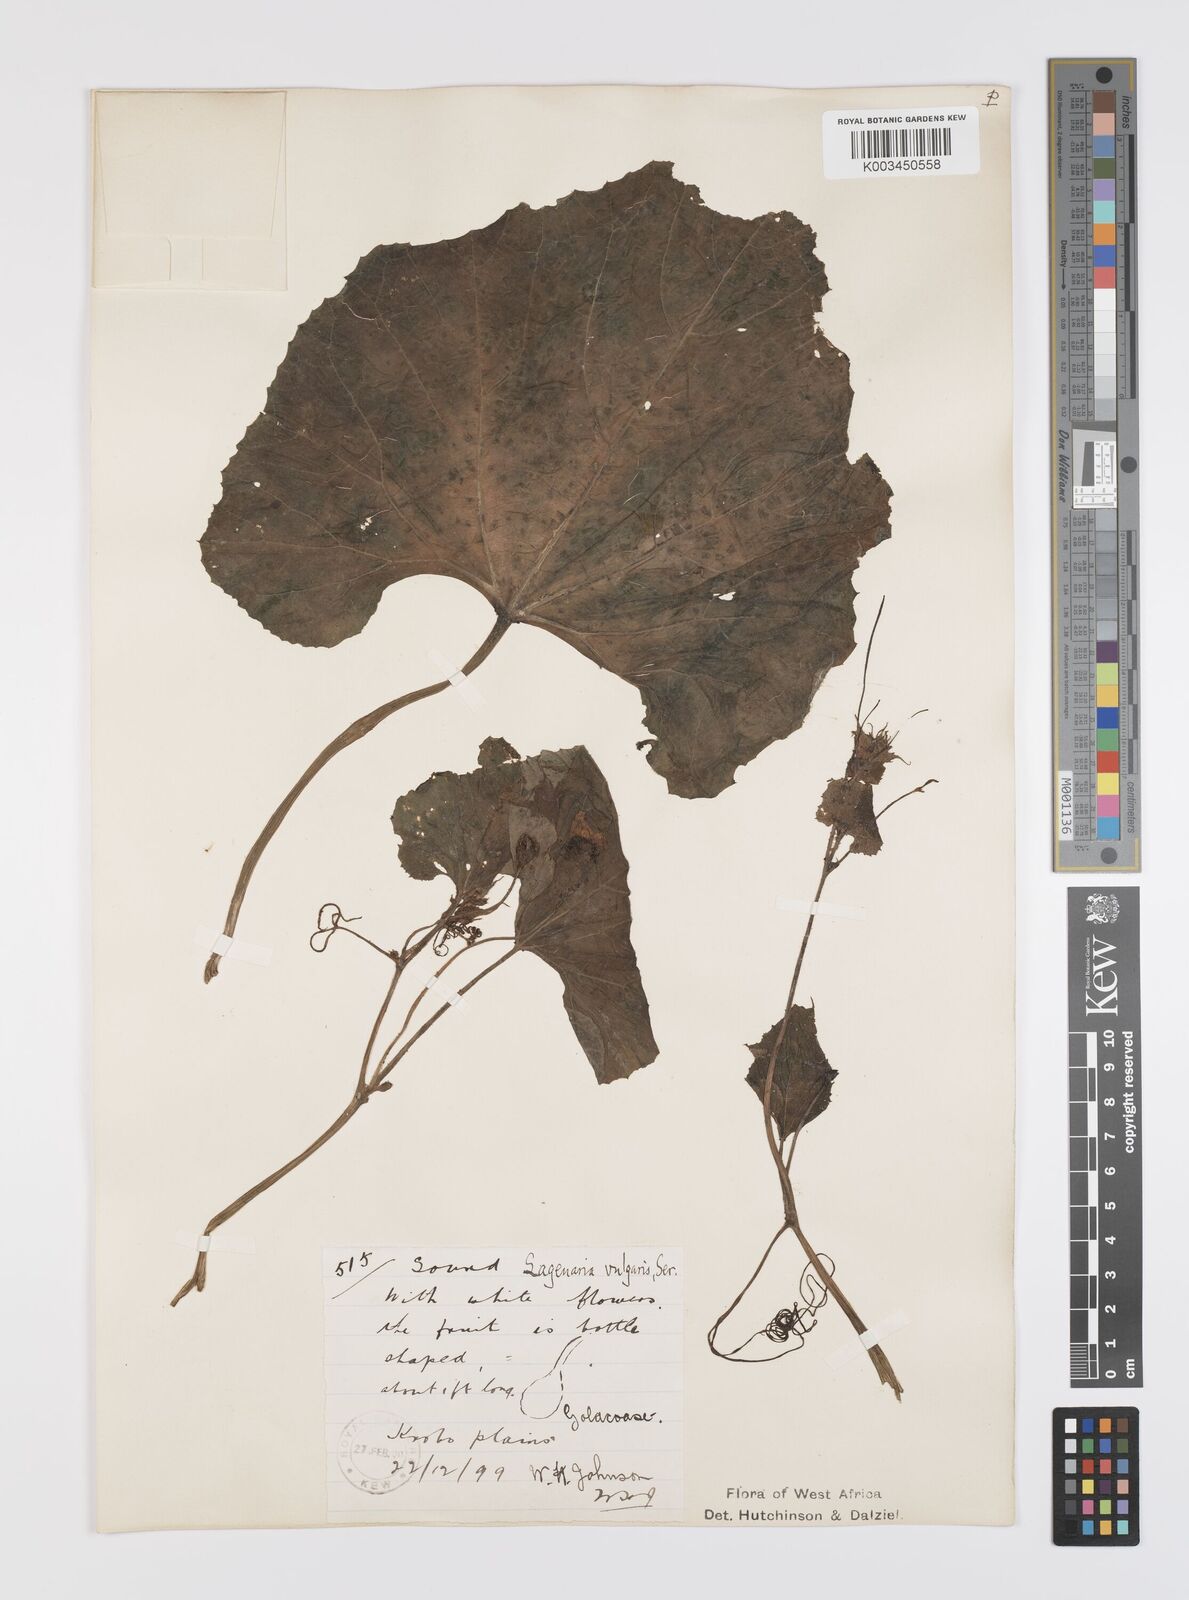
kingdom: Plantae
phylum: Tracheophyta
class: Magnoliopsida
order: Cucurbitales
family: Cucurbitaceae
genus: Lagenaria
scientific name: Lagenaria siceraria
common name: Bottle gourd
